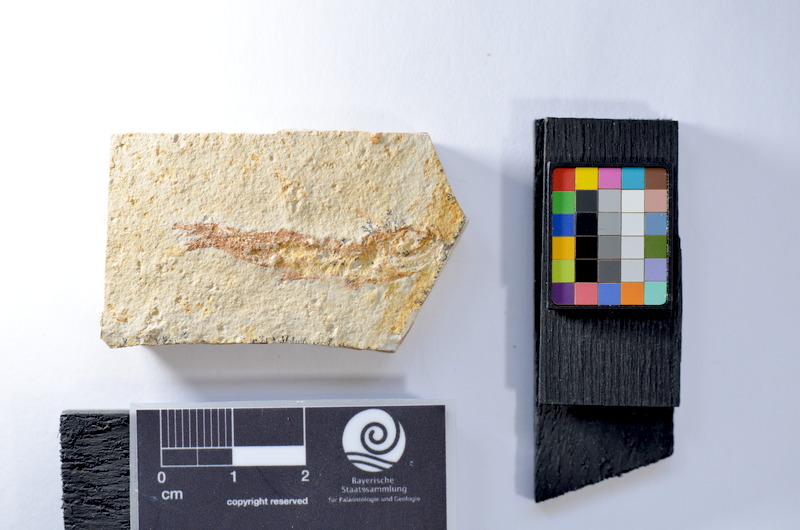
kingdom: Animalia
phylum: Chordata
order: Salmoniformes
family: Orthogonikleithridae
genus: Leptolepides
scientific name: Leptolepides
